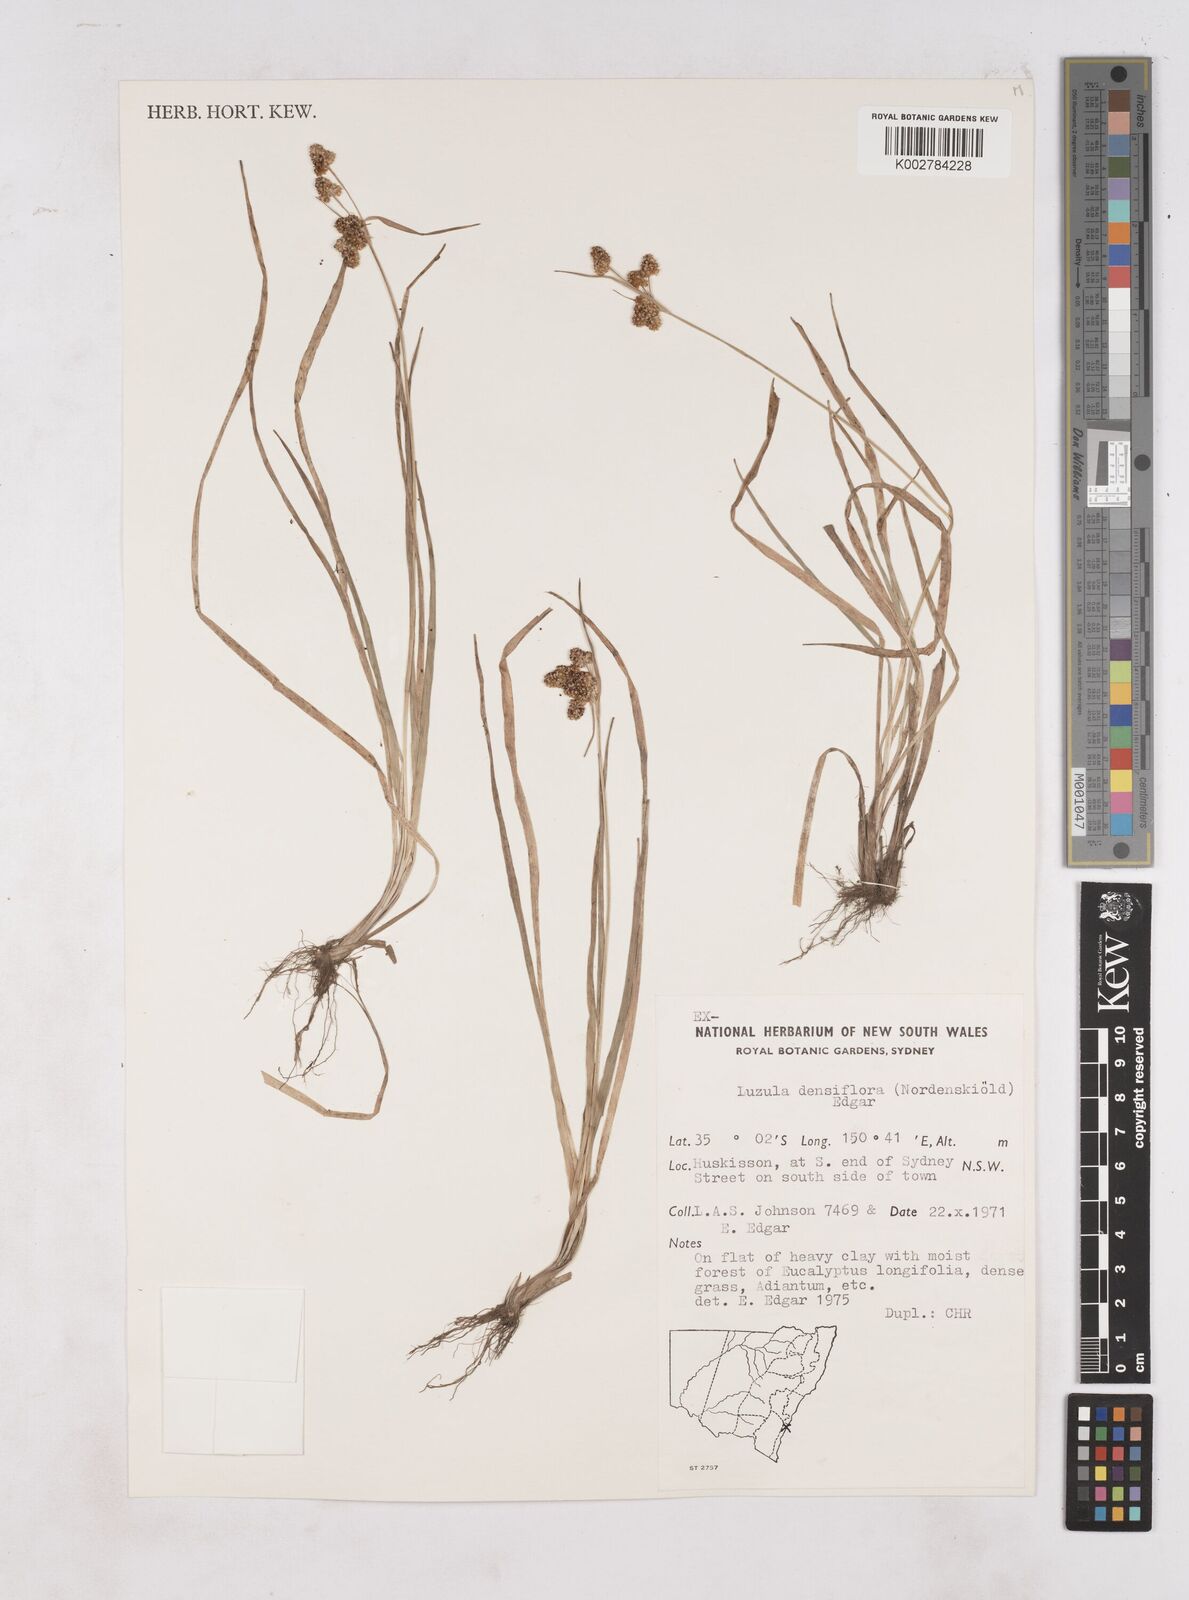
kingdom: Plantae
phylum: Tracheophyta
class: Liliopsida
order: Poales
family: Juncaceae
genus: Luzula
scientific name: Luzula densiflora
